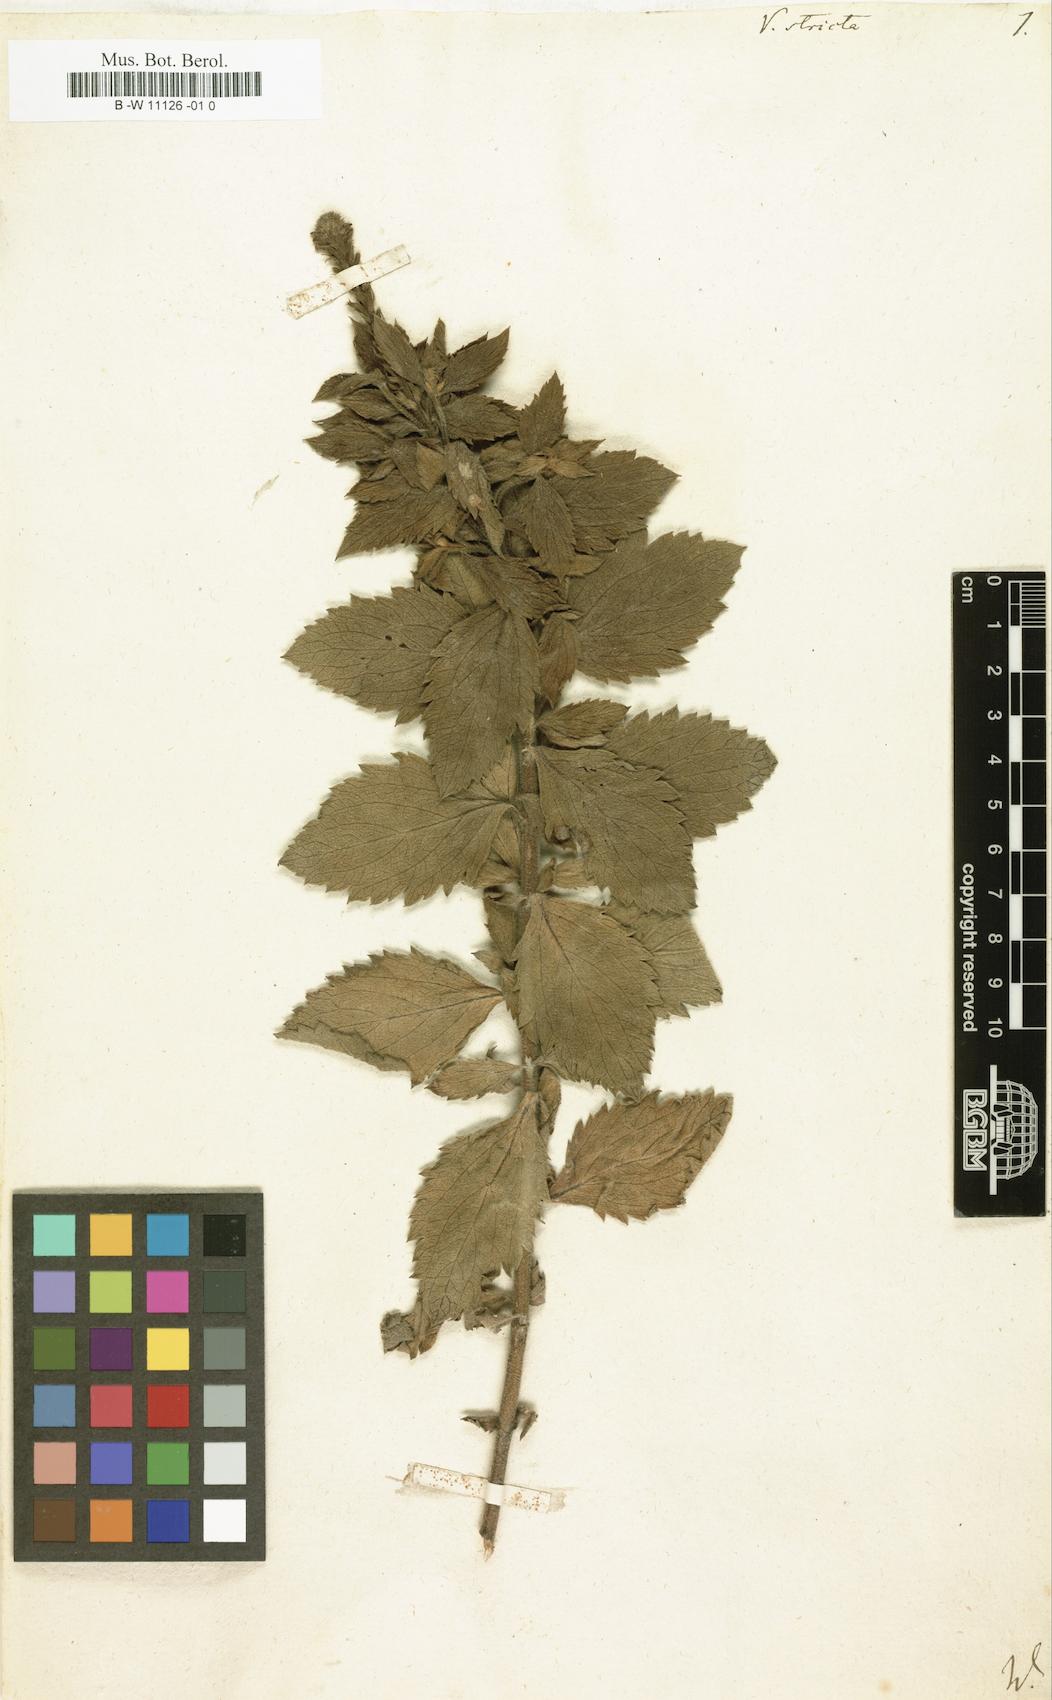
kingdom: Plantae
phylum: Tracheophyta
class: Magnoliopsida
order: Lamiales
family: Verbenaceae
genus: Verbena
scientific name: Verbena stricta
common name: Hoary vervain
